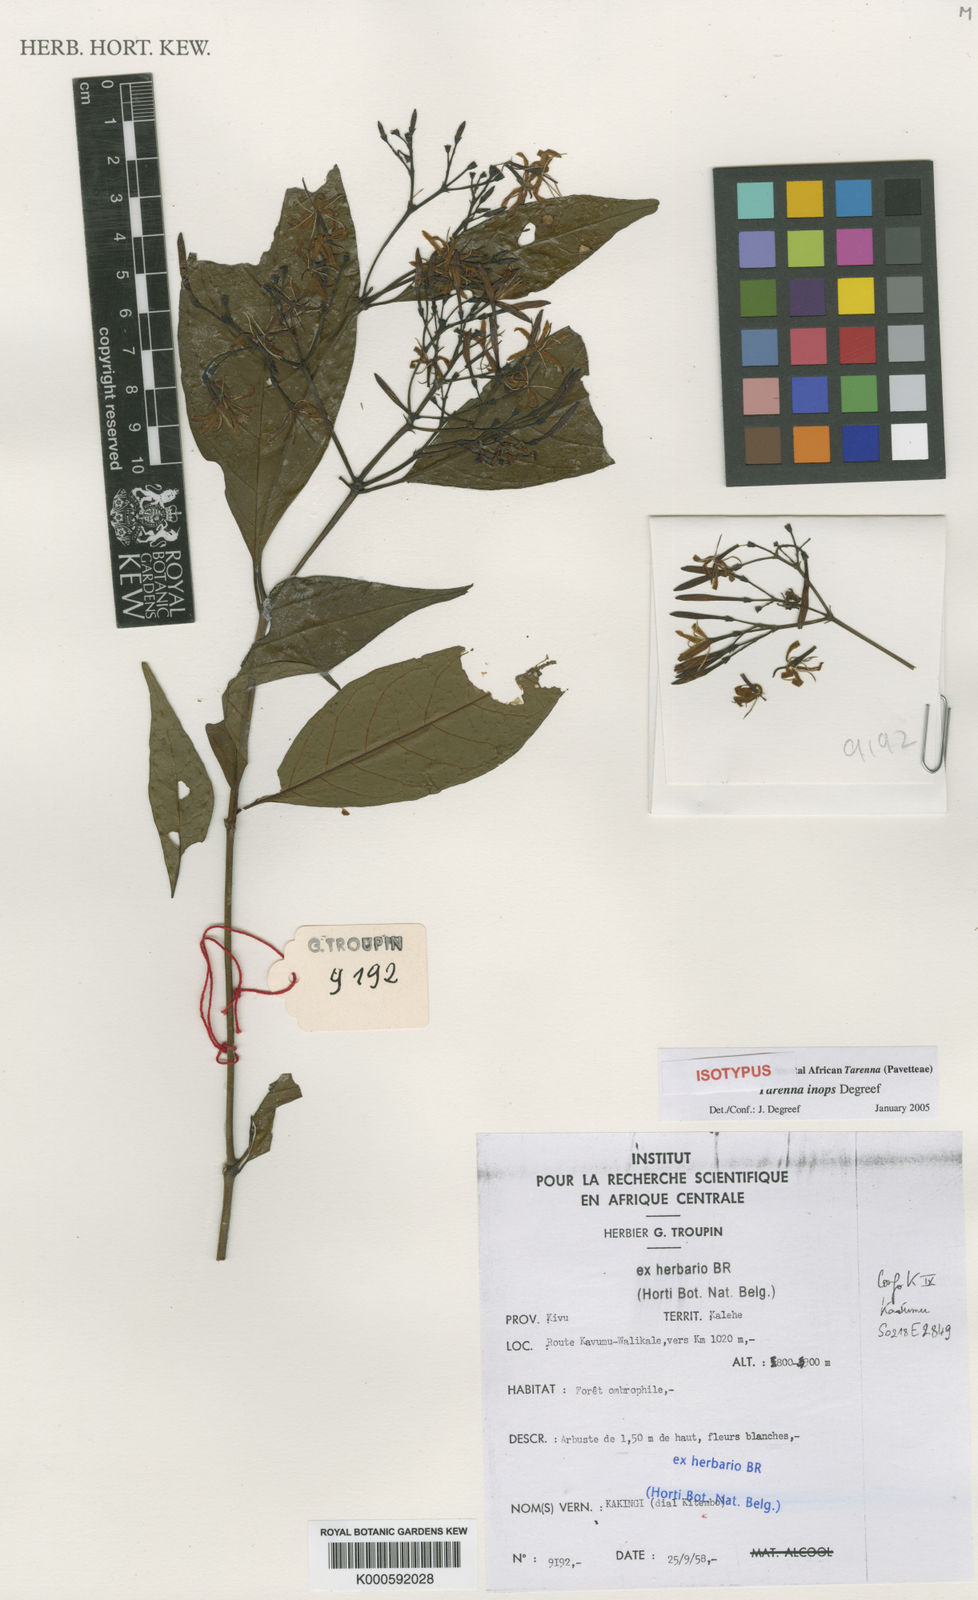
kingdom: Plantae
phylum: Tracheophyta
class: Magnoliopsida
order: Gentianales
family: Rubiaceae
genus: Tarenna
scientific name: Tarenna inops
